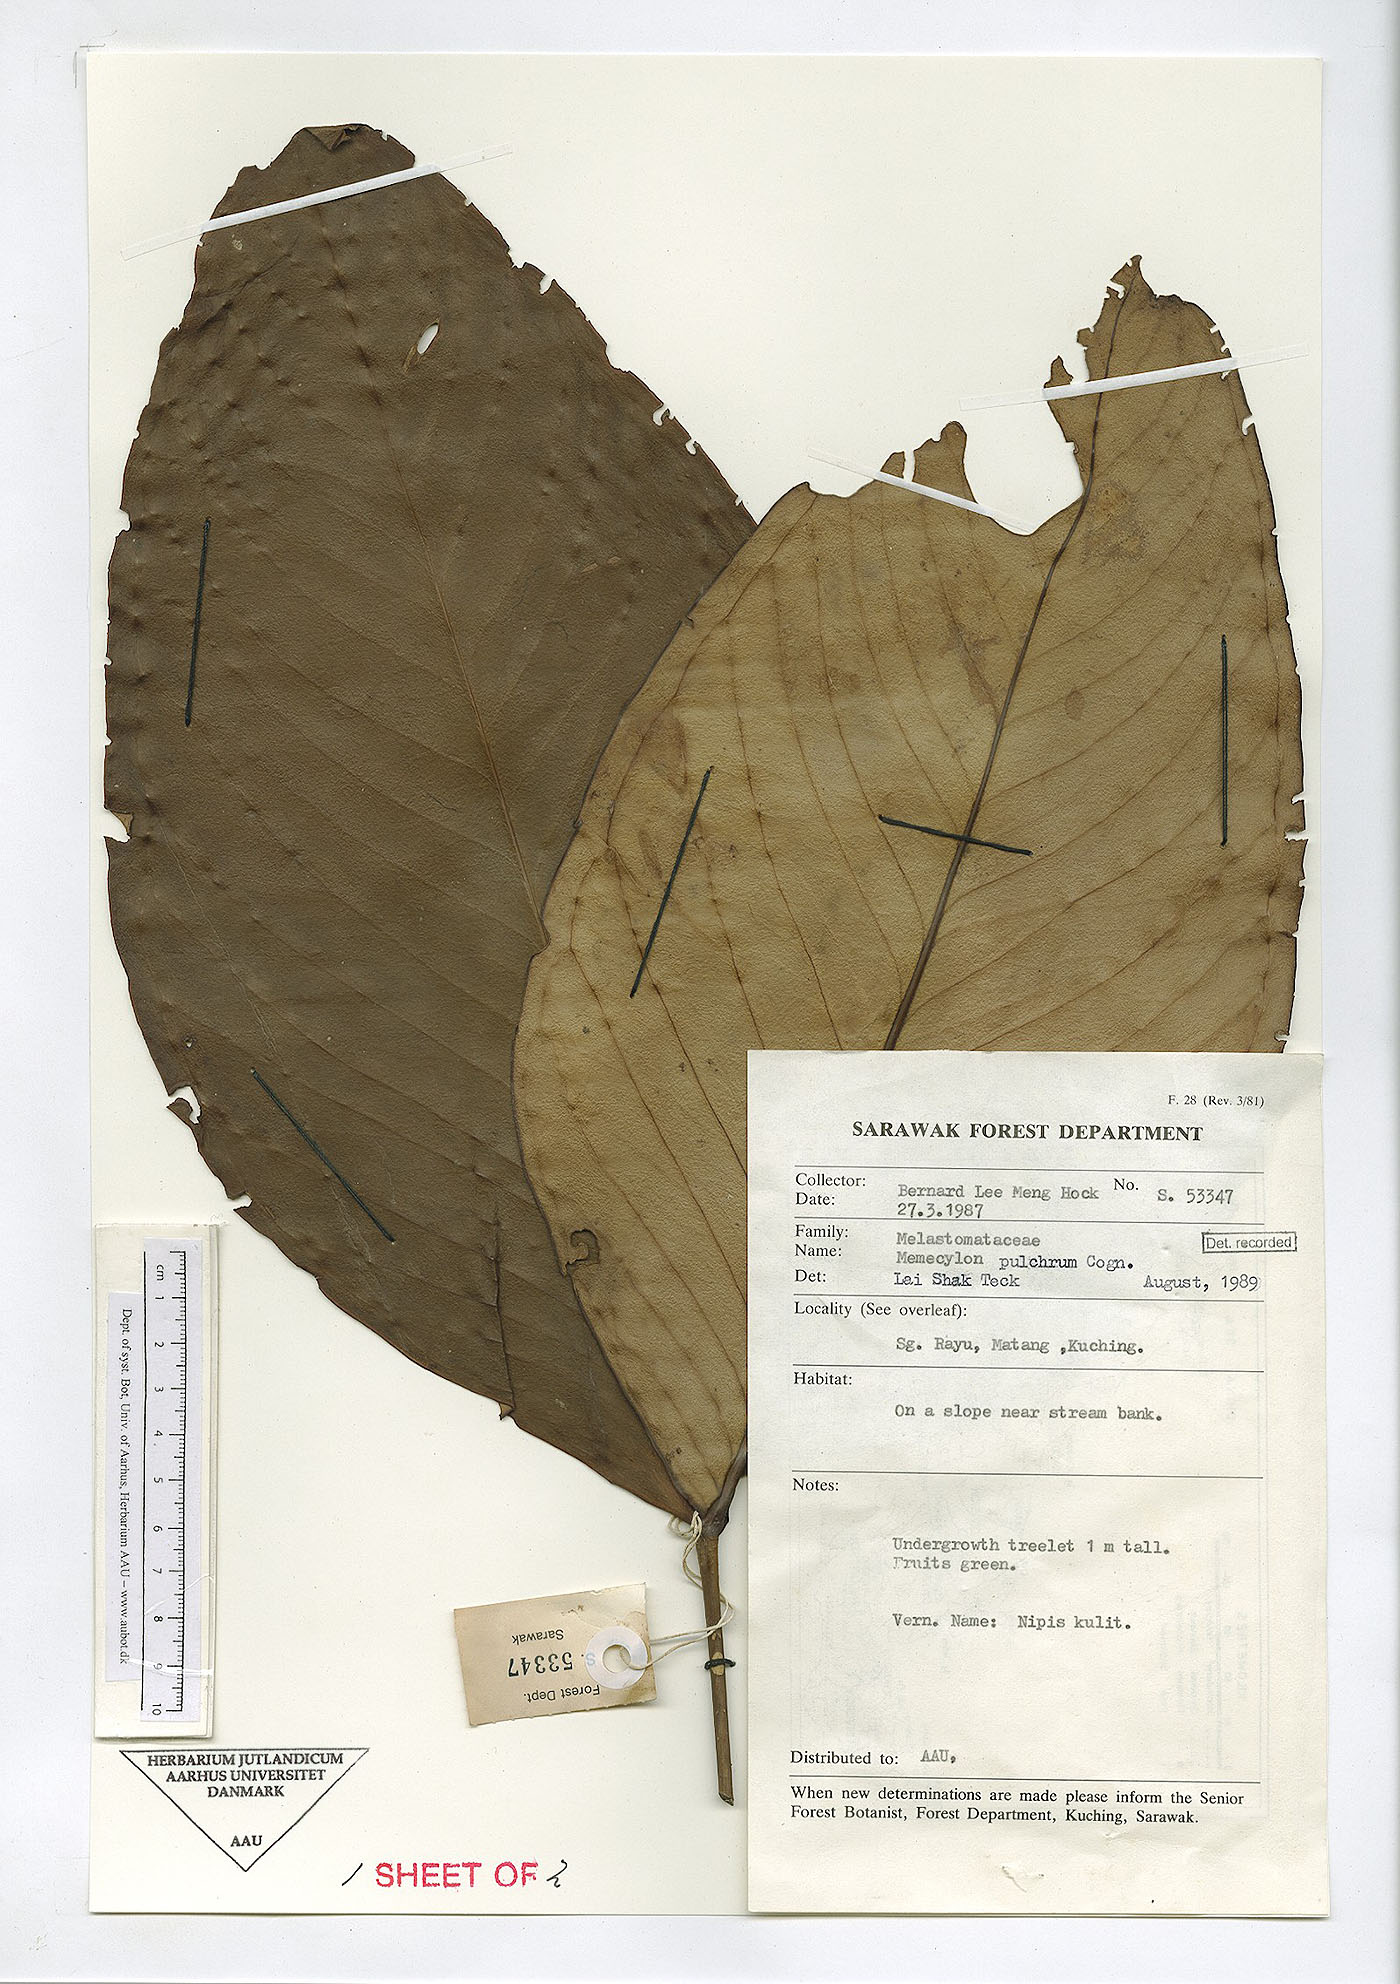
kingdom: Plantae
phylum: Tracheophyta
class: Magnoliopsida
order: Myrtales
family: Melastomataceae
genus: Memecylon
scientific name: Memecylon megacarpum
